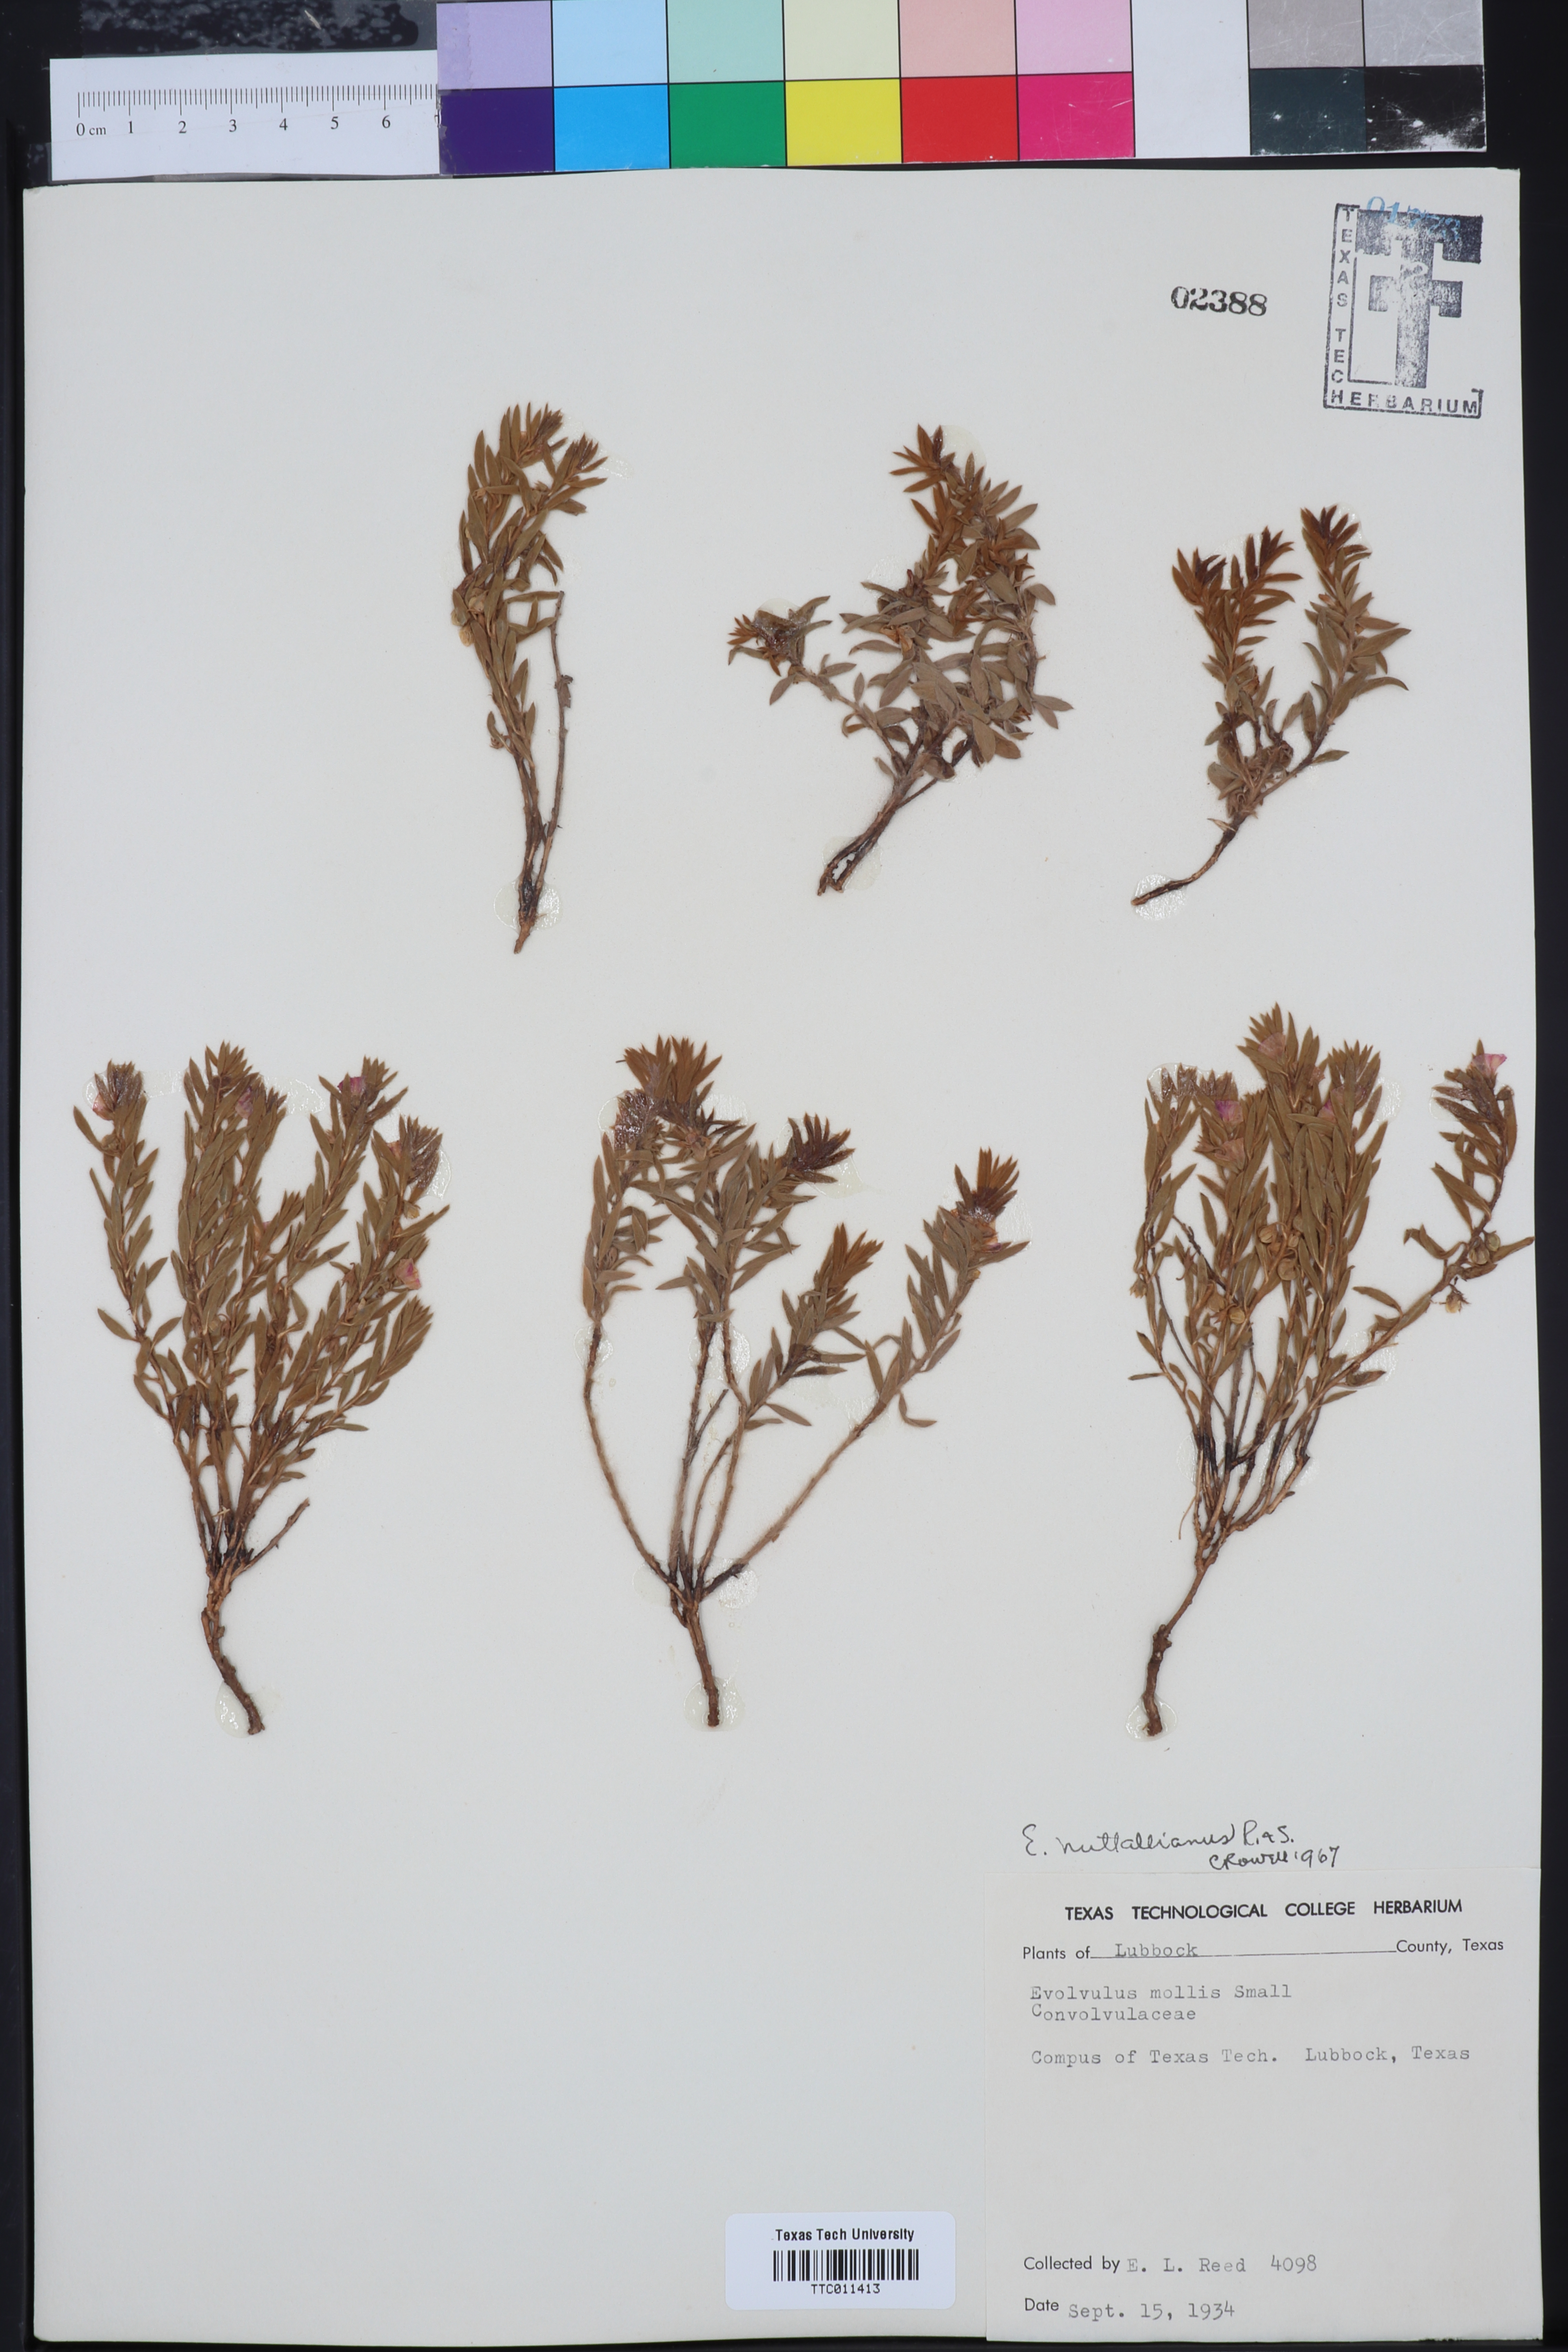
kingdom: Plantae
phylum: Tracheophyta
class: Magnoliopsida
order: Solanales
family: Convolvulaceae
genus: Evolvulus
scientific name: Evolvulus nuttallianus
